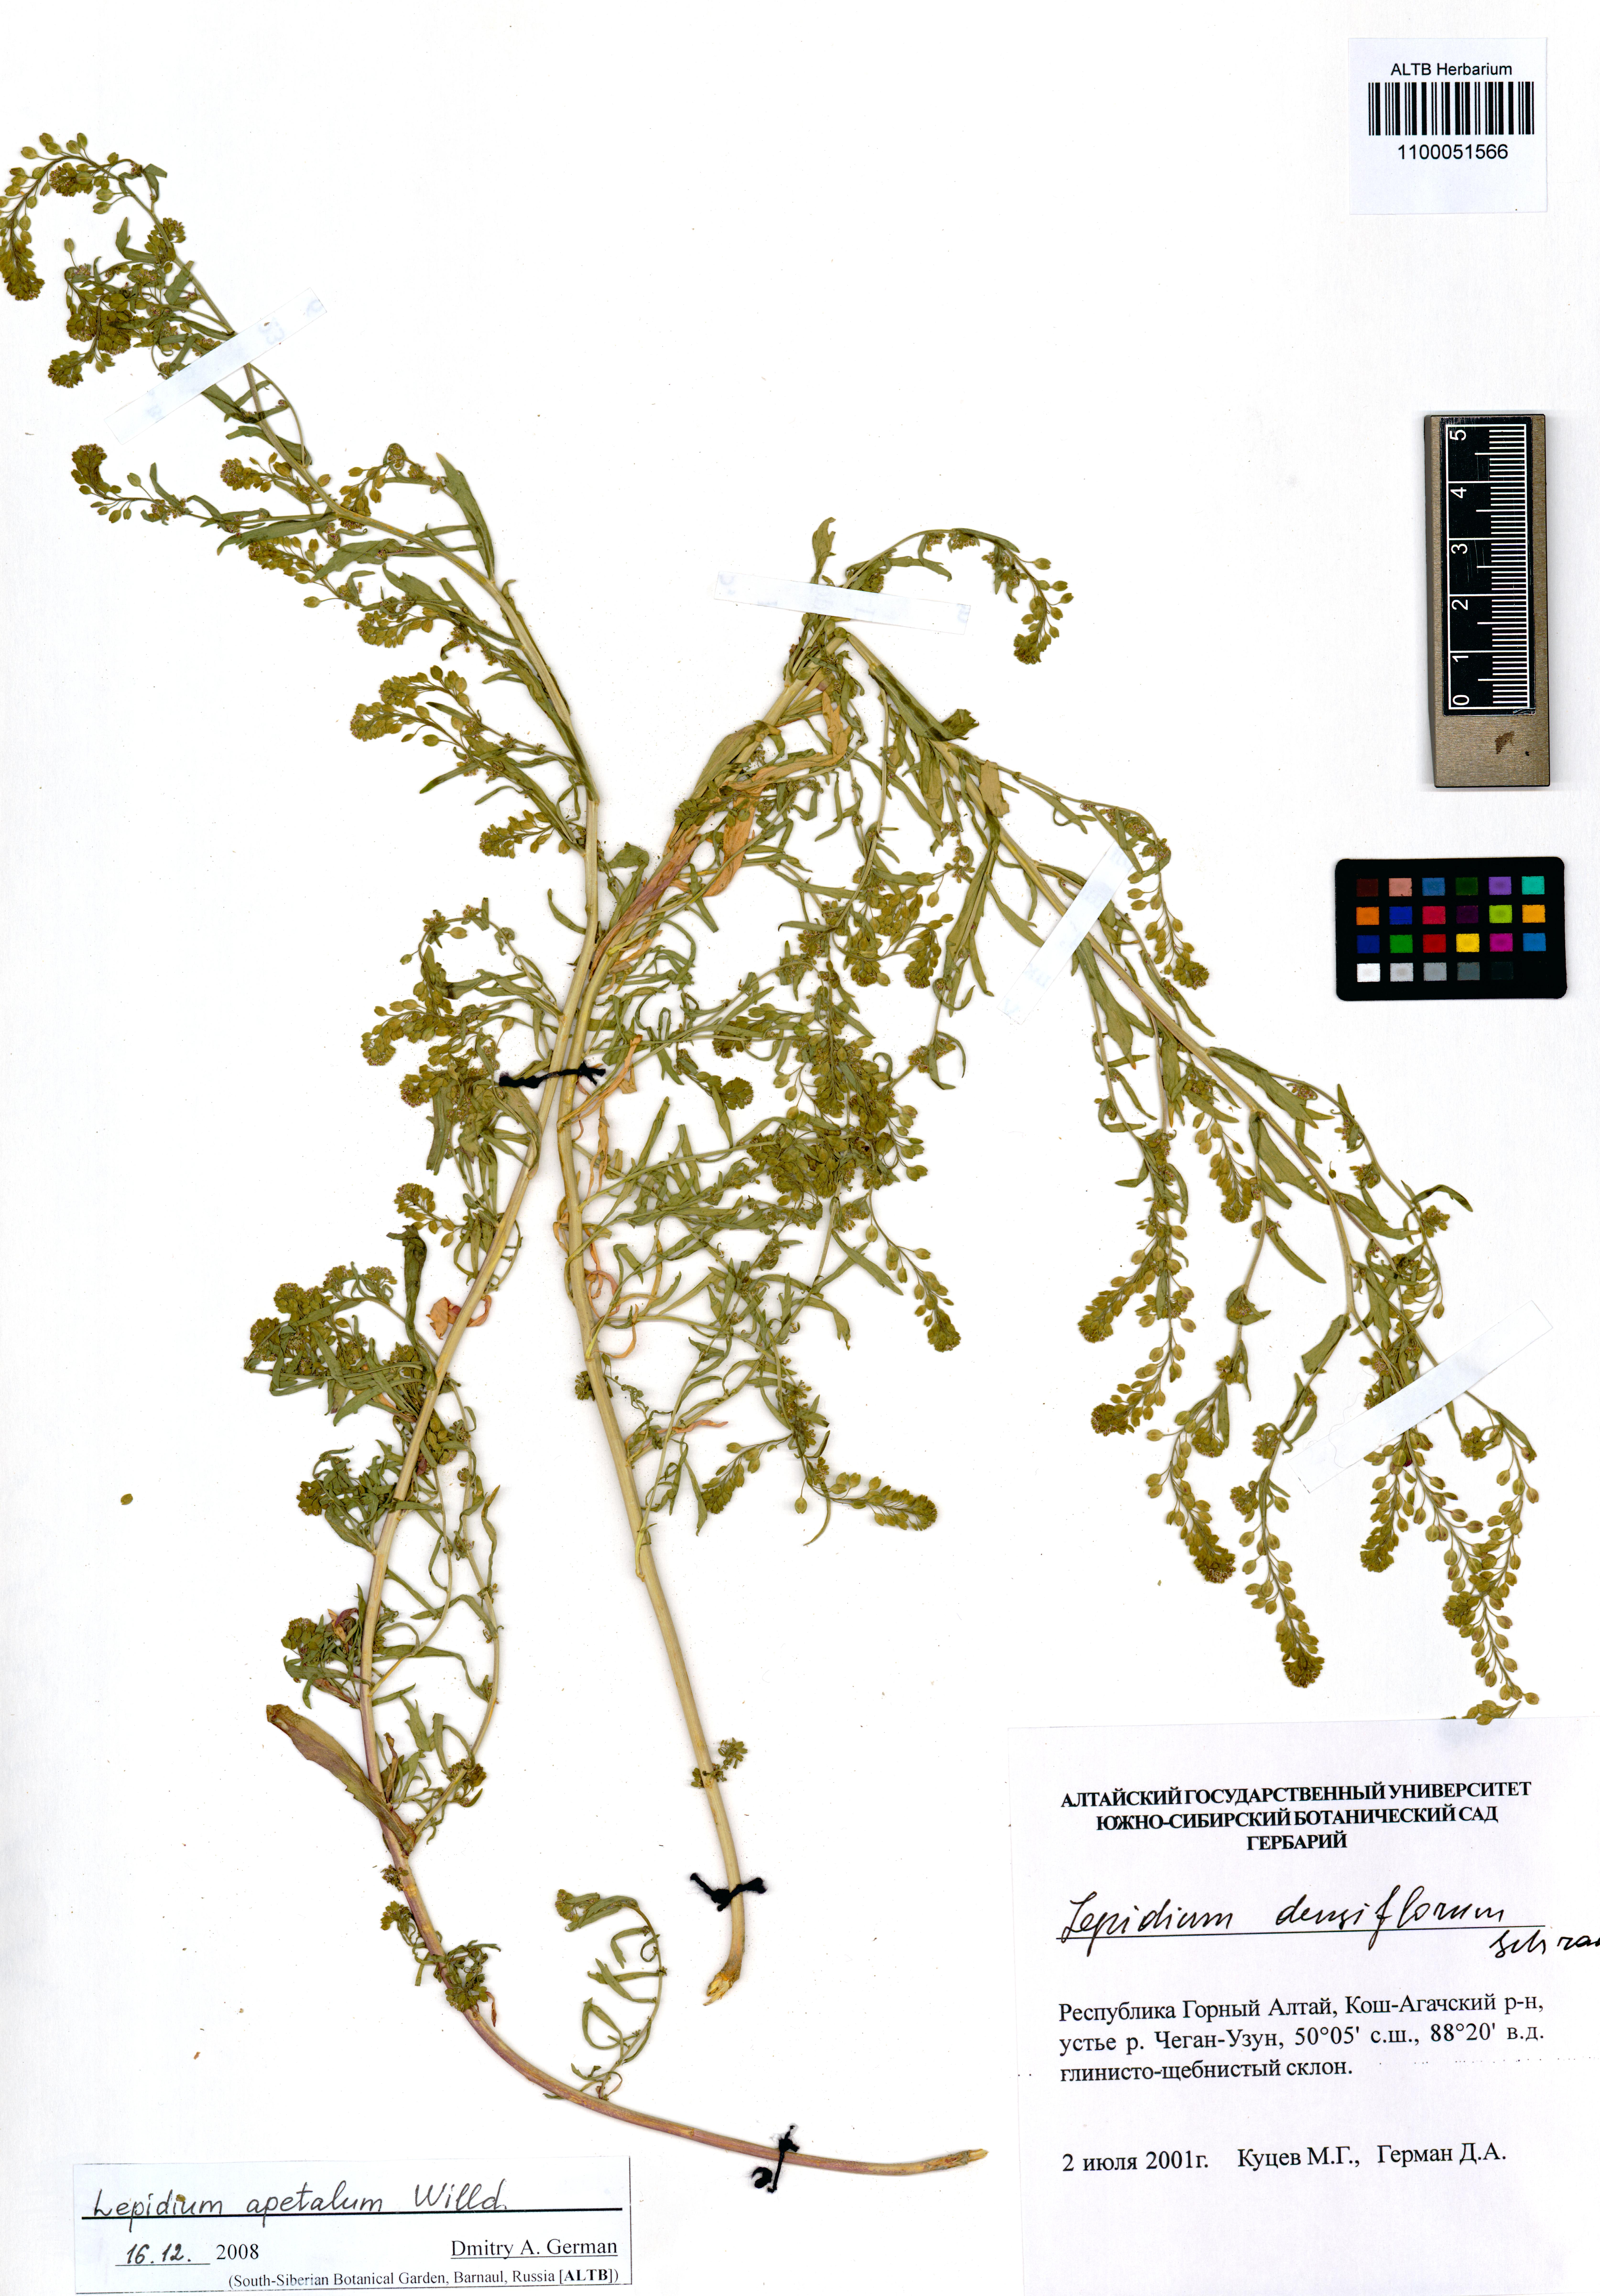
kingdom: Plantae
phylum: Tracheophyta
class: Magnoliopsida
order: Brassicales
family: Brassicaceae
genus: Lepidium
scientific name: Lepidium apetalum
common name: Pepperweed
